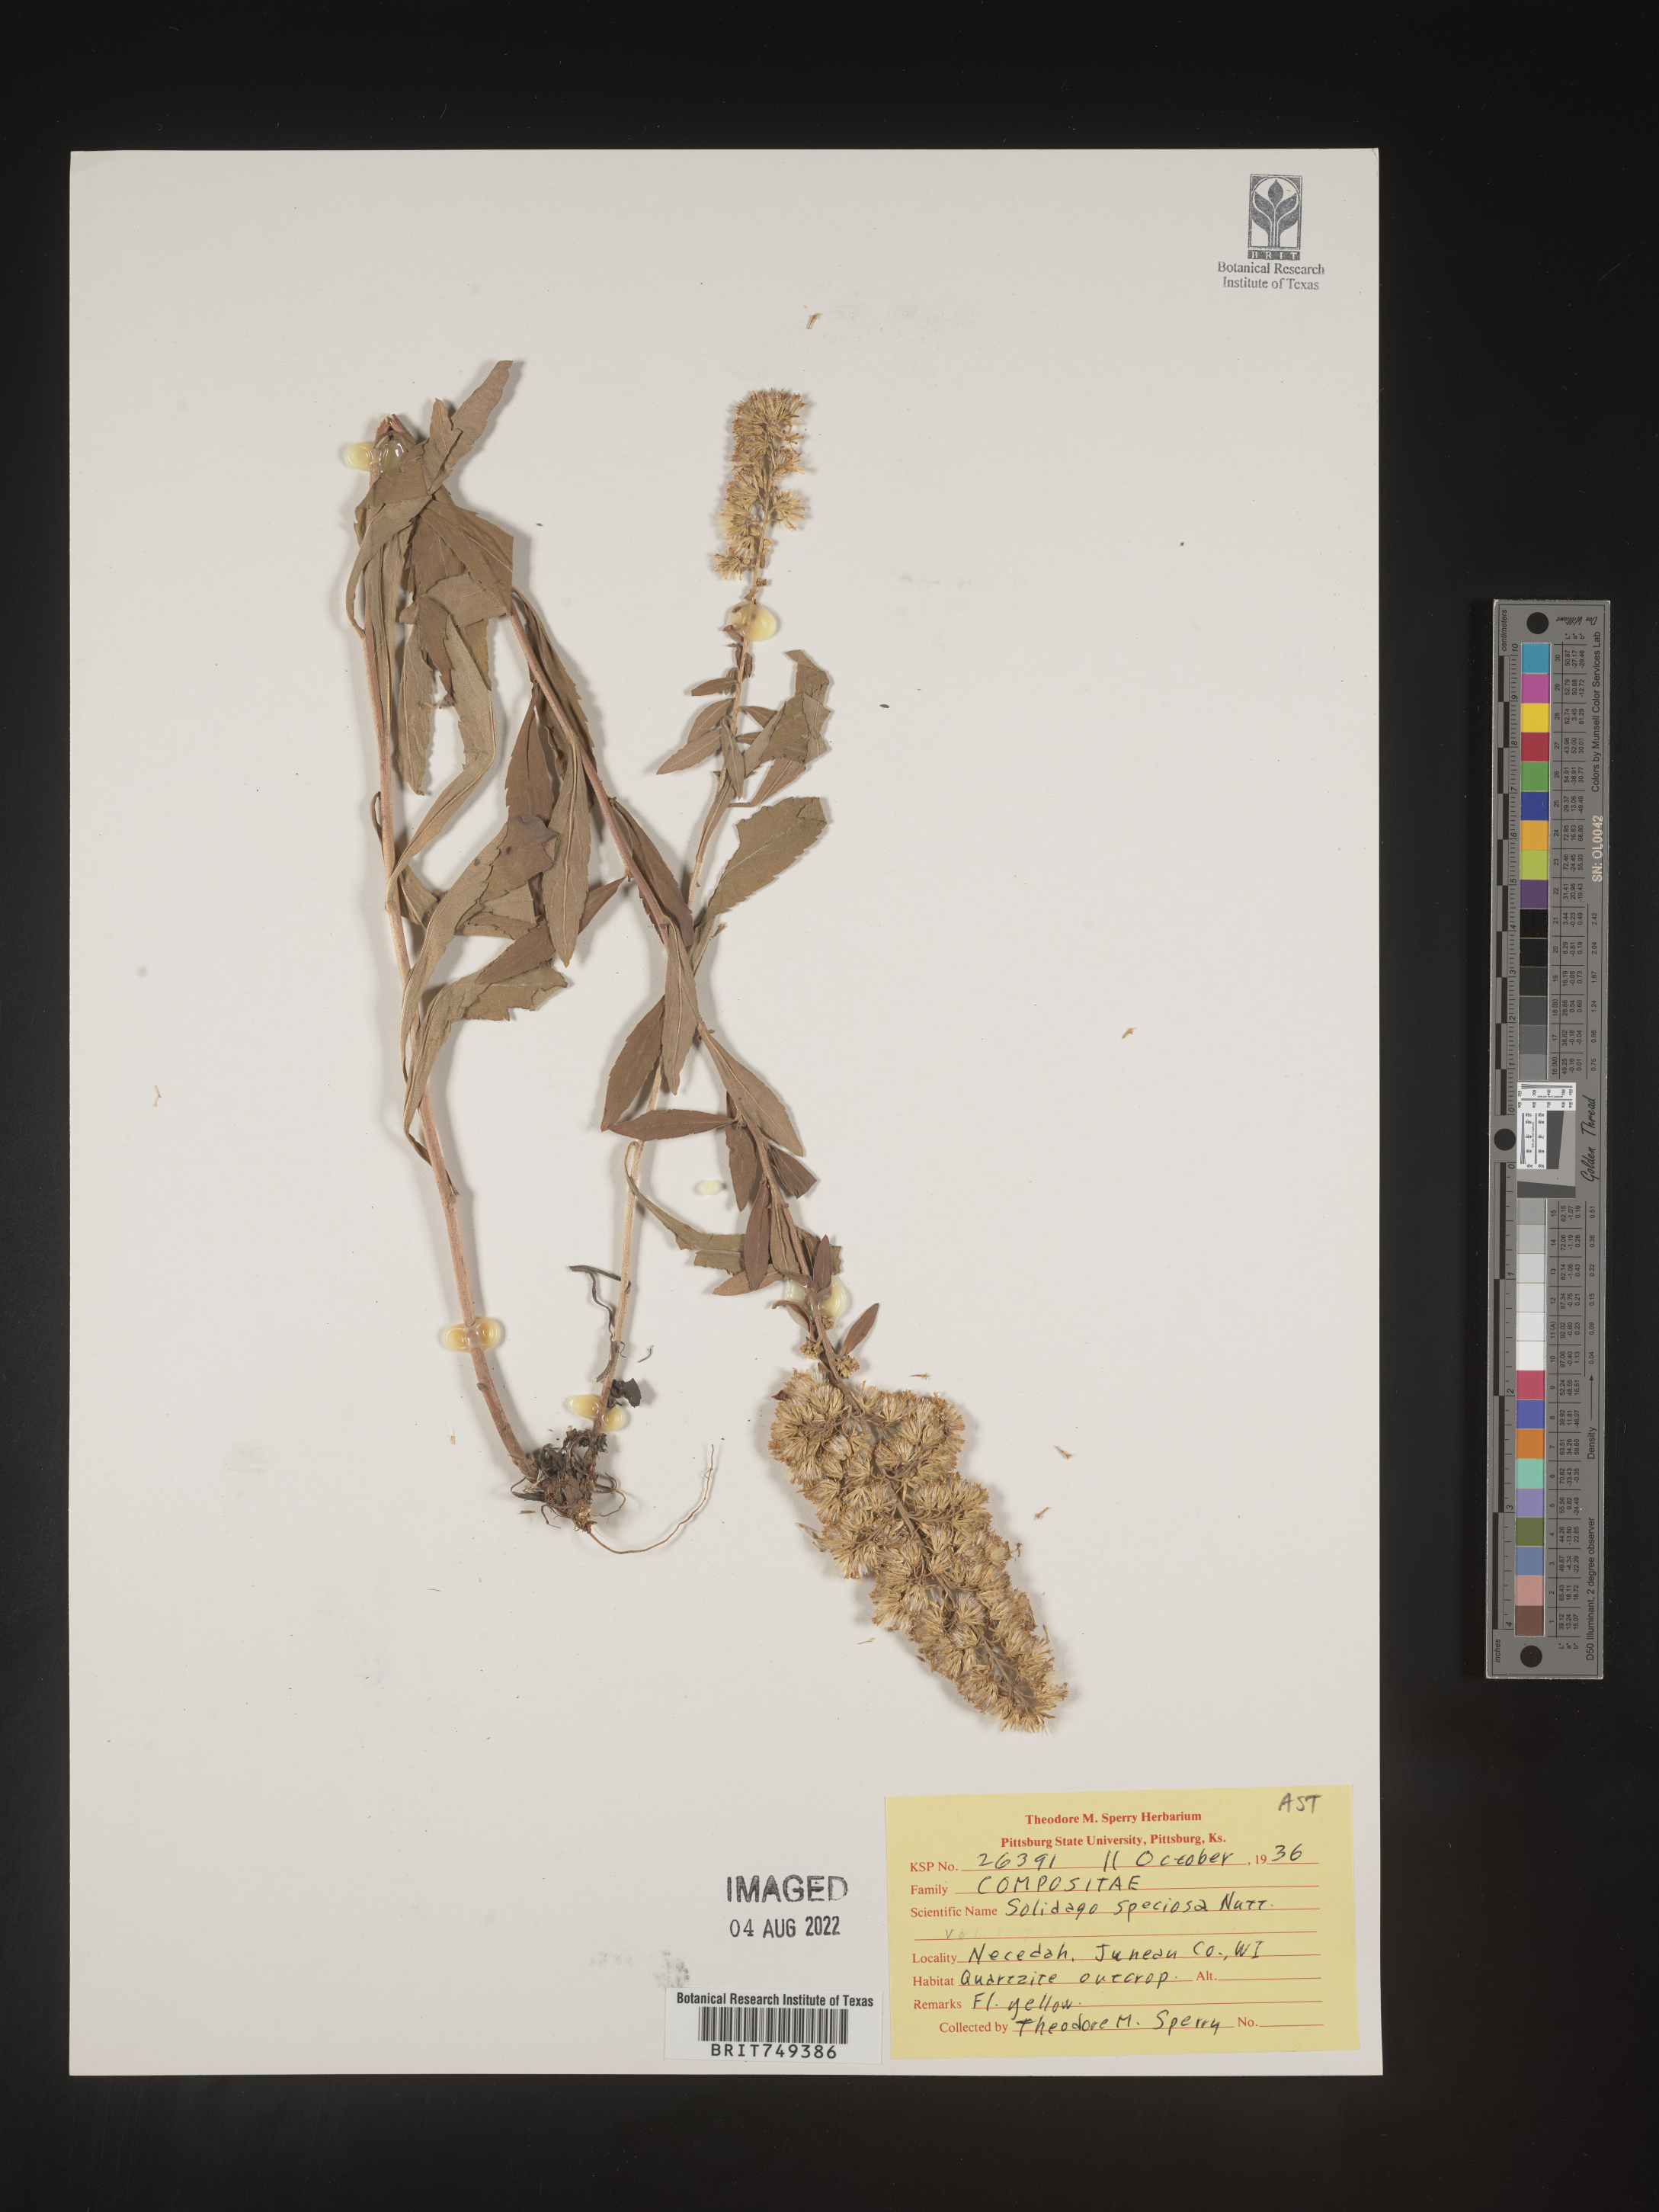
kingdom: Plantae
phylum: Tracheophyta
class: Magnoliopsida
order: Asterales
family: Asteraceae
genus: Solidago
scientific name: Solidago speciosa
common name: Showy goldenrod
